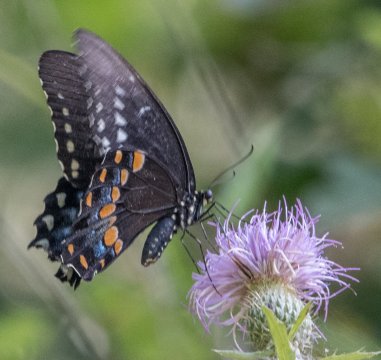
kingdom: Animalia
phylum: Arthropoda
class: Insecta
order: Lepidoptera
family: Papilionidae
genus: Pterourus
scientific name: Pterourus troilus
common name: Spicebush Swallowtail
